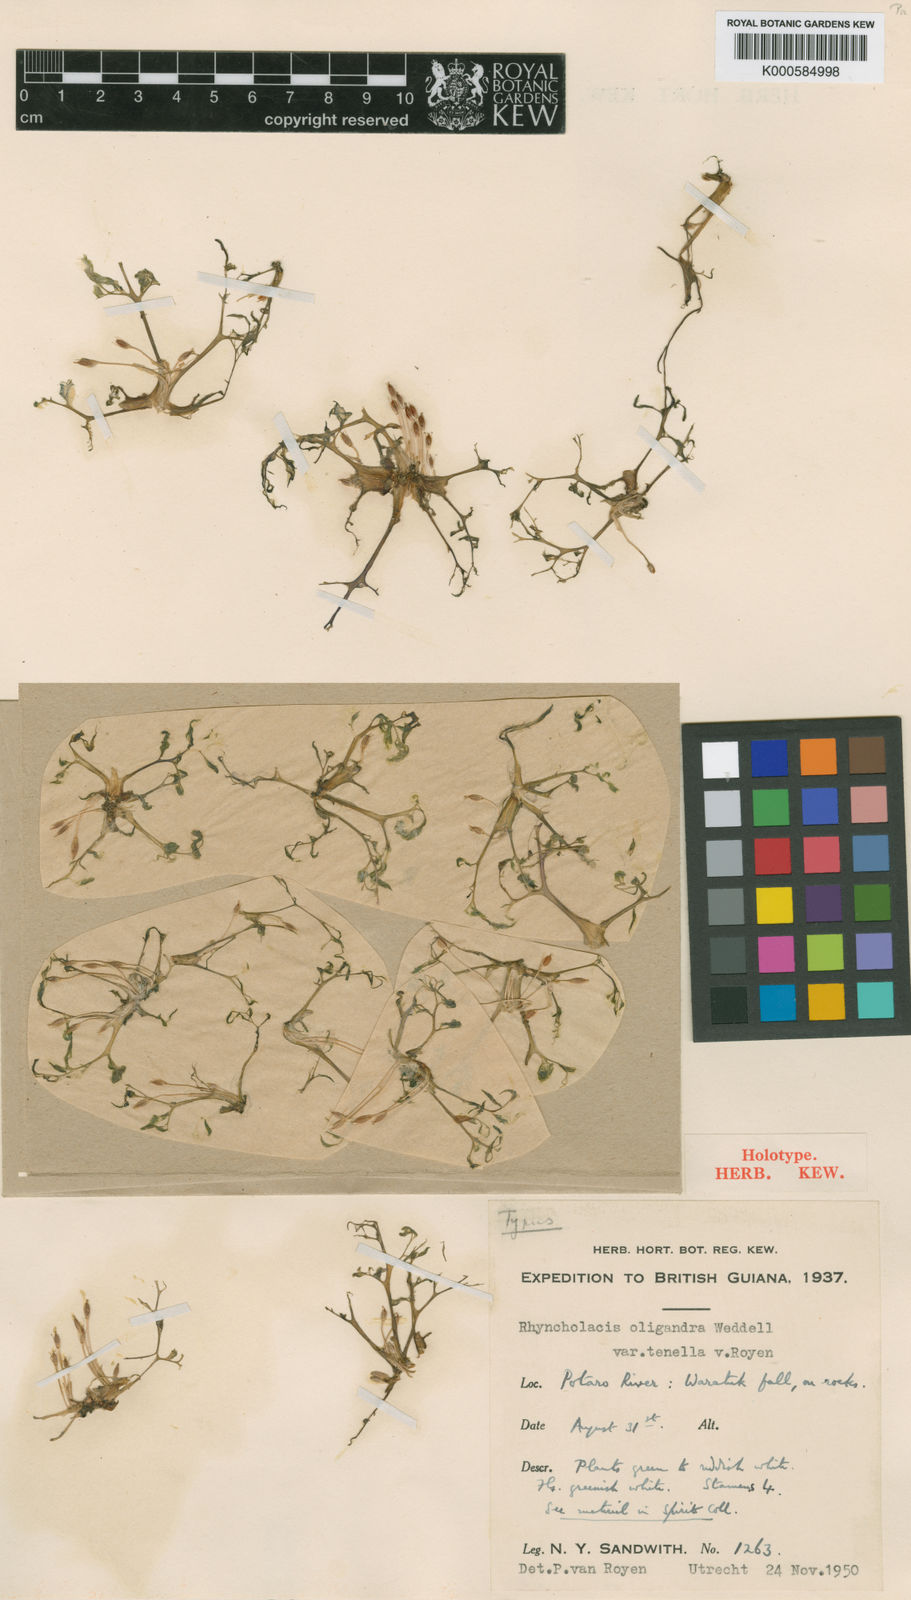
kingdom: Plantae
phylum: Tracheophyta
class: Magnoliopsida
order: Malpighiales
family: Podostemaceae
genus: Rhyncholacis
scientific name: Rhyncholacis oligandra
